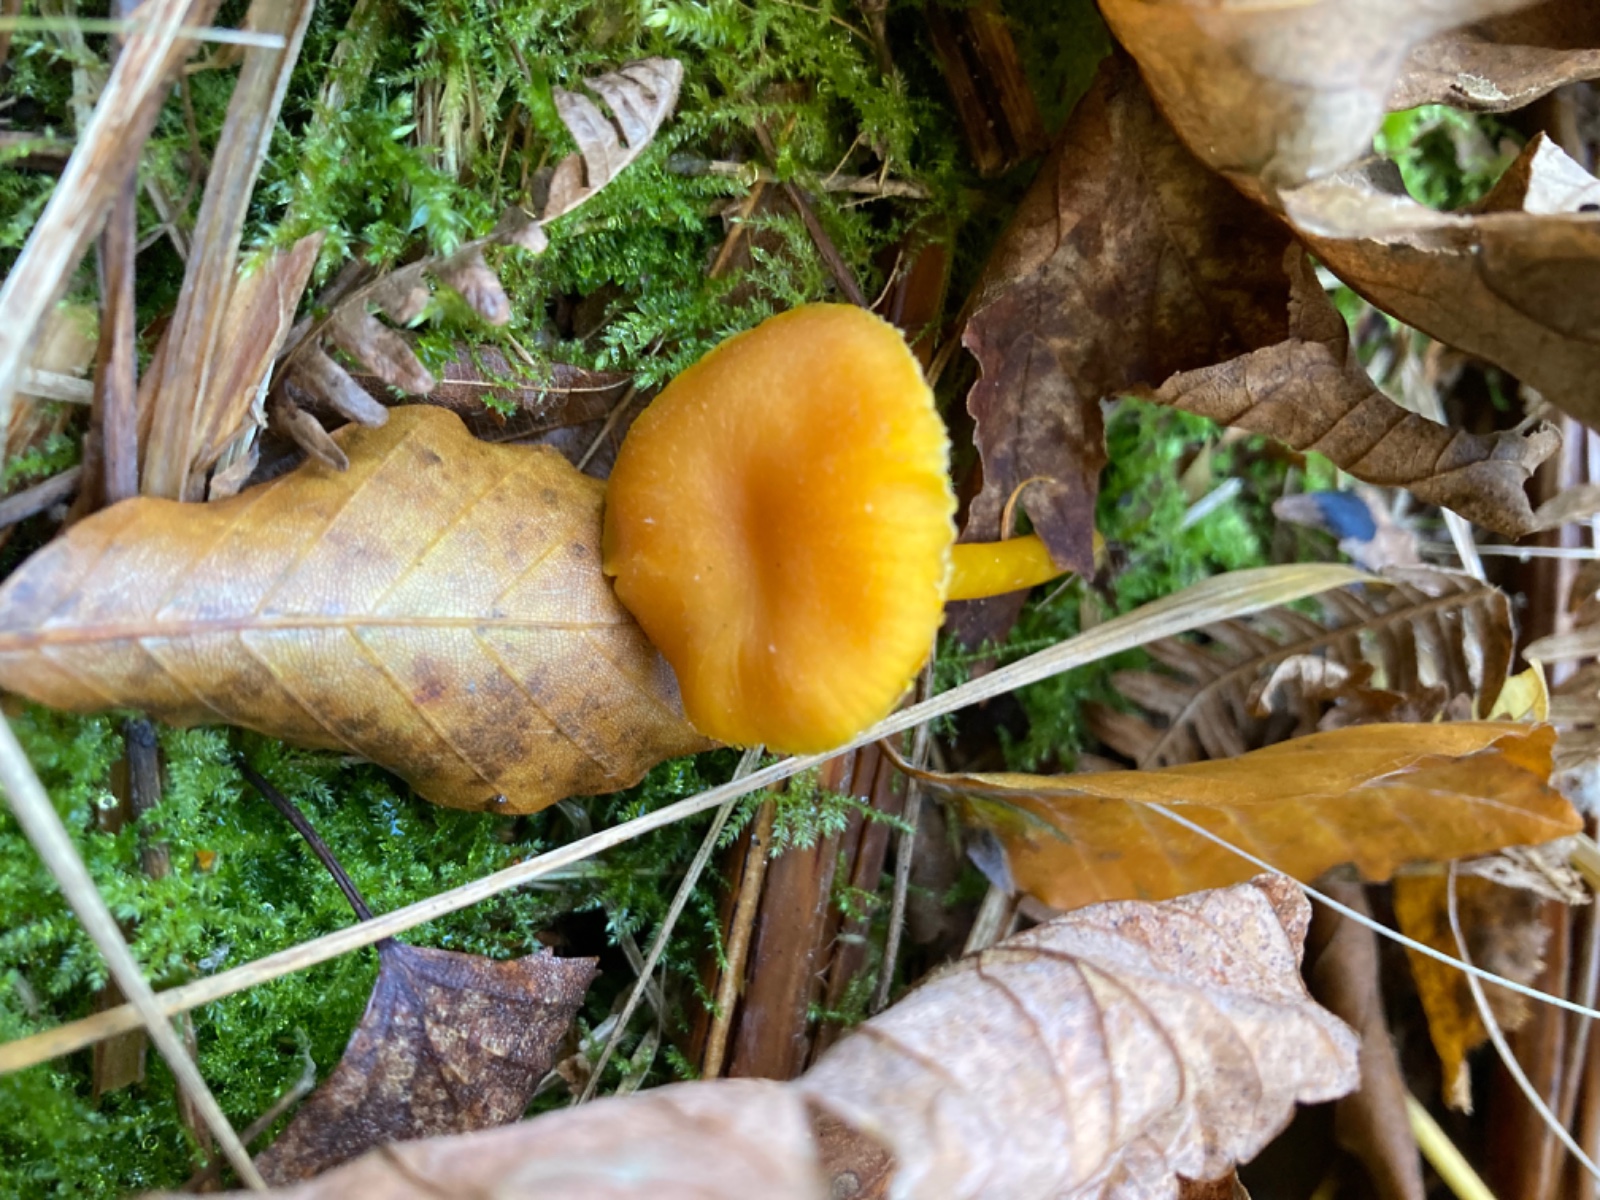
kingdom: Fungi
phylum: Basidiomycota
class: Agaricomycetes
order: Agaricales
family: Hygrophoraceae
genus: Hygrocybe
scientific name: Hygrocybe ceracea
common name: voksgul vokshat
